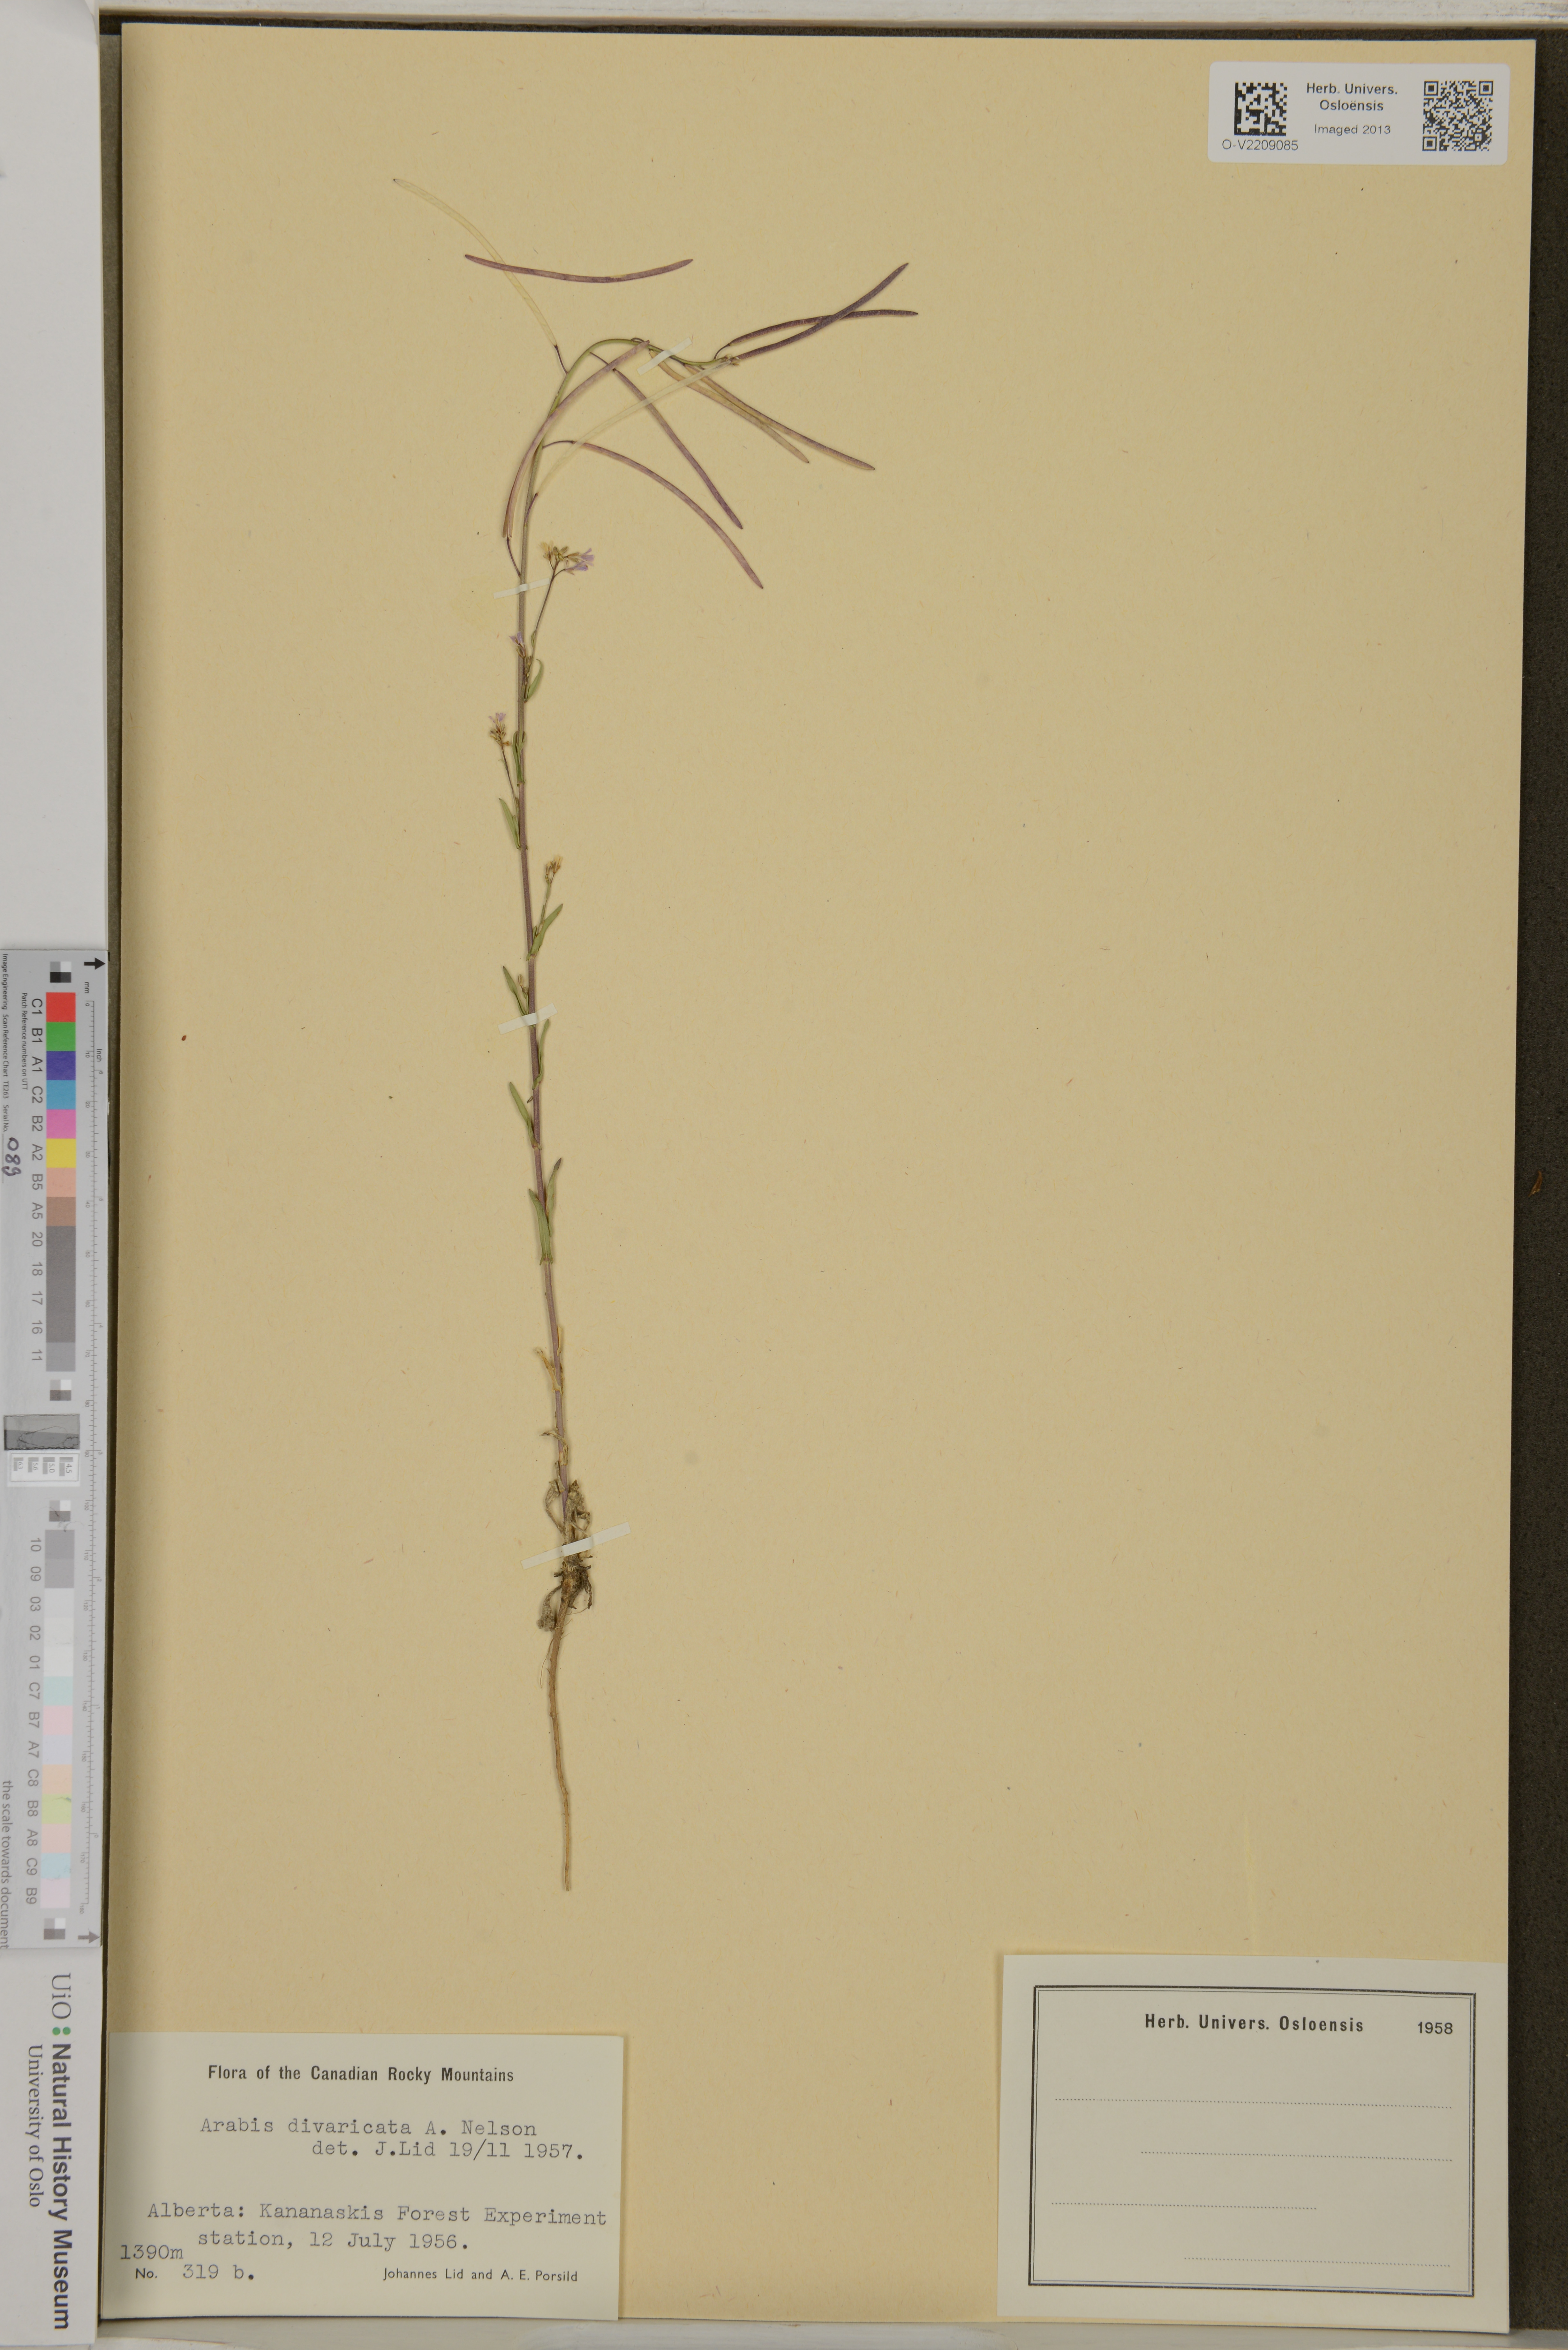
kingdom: Plantae
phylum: Tracheophyta
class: Magnoliopsida
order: Brassicales
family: Brassicaceae
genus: Boechera
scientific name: Boechera divaricarpa
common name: Divaricate rockcress
